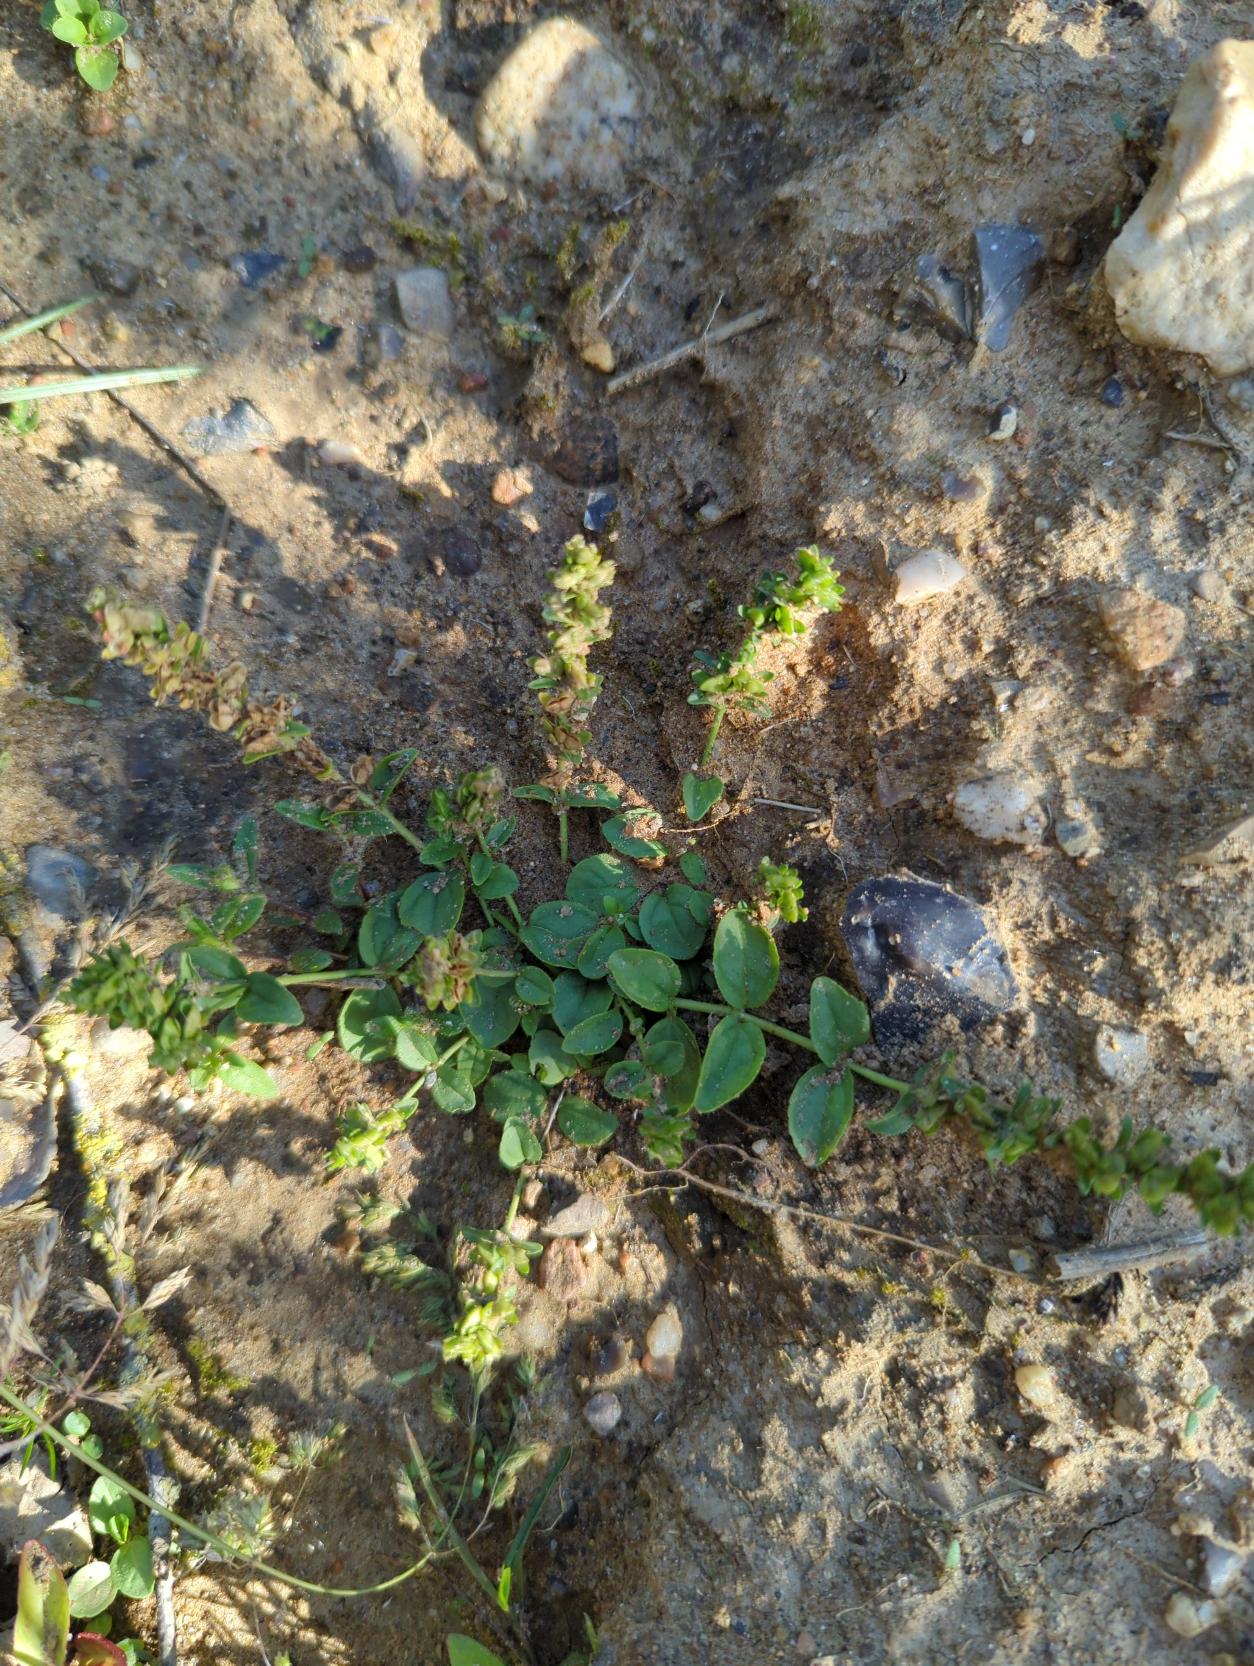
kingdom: Plantae
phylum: Tracheophyta
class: Magnoliopsida
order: Lamiales
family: Plantaginaceae
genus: Veronica
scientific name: Veronica serpyllifolia
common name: Glat ærenpris
